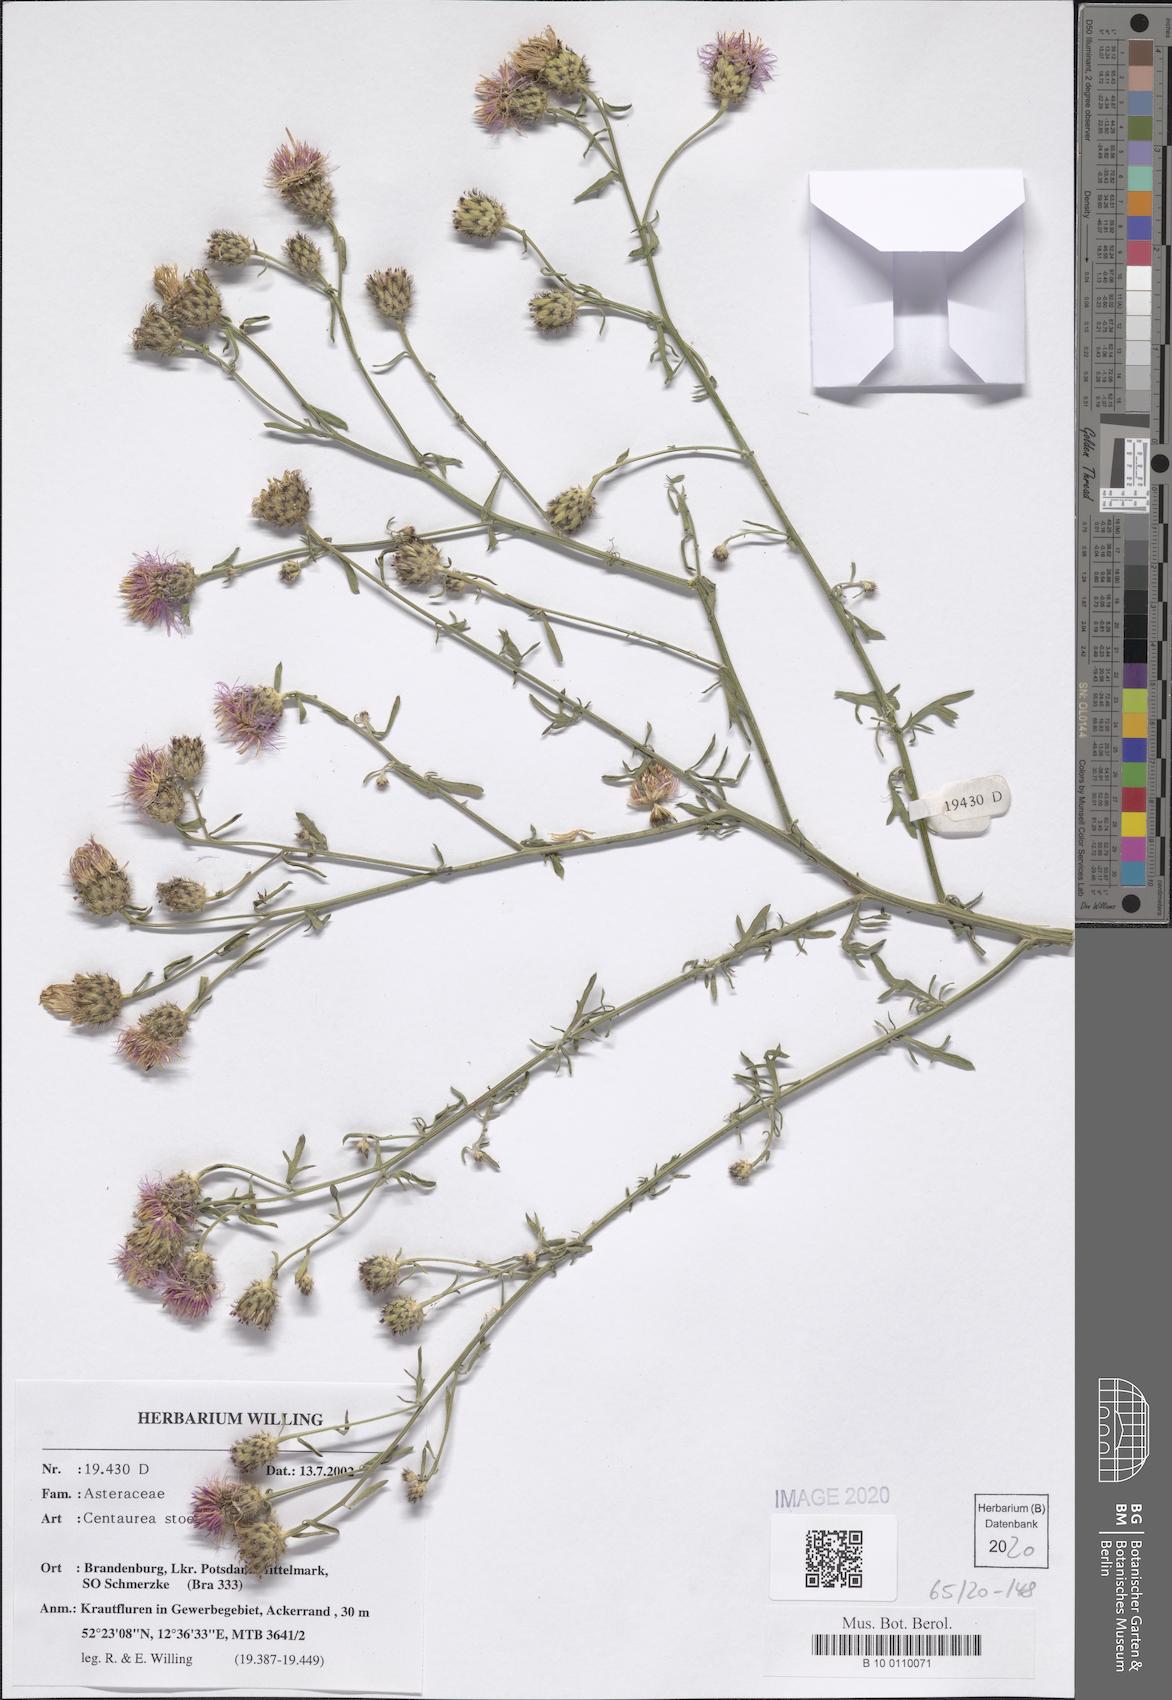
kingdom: Plantae
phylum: Tracheophyta
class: Magnoliopsida
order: Asterales
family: Asteraceae
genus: Centaurea
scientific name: Centaurea stoebe
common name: Spotted knapweed
